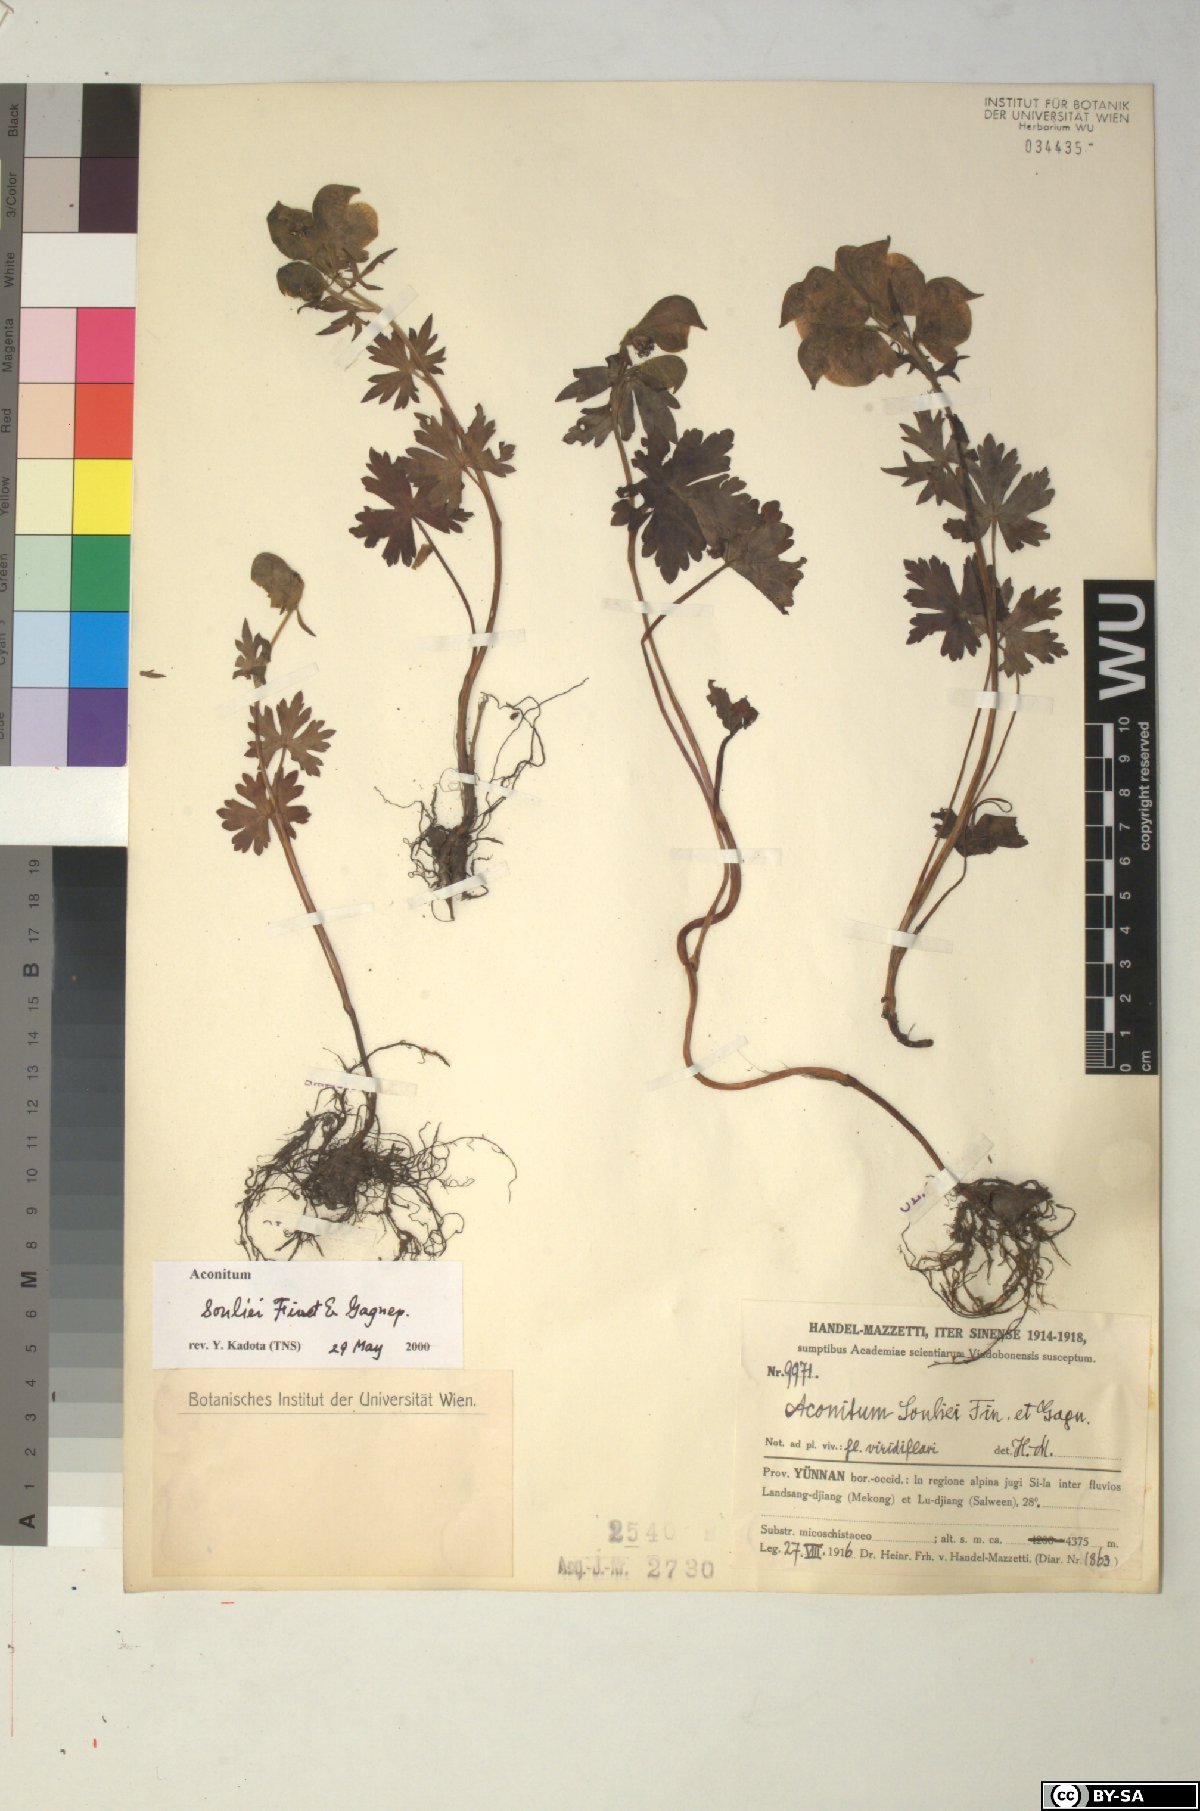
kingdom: Plantae
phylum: Tracheophyta
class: Magnoliopsida
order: Ranunculales
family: Ranunculaceae
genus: Aconitum
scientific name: Aconitum souliei
